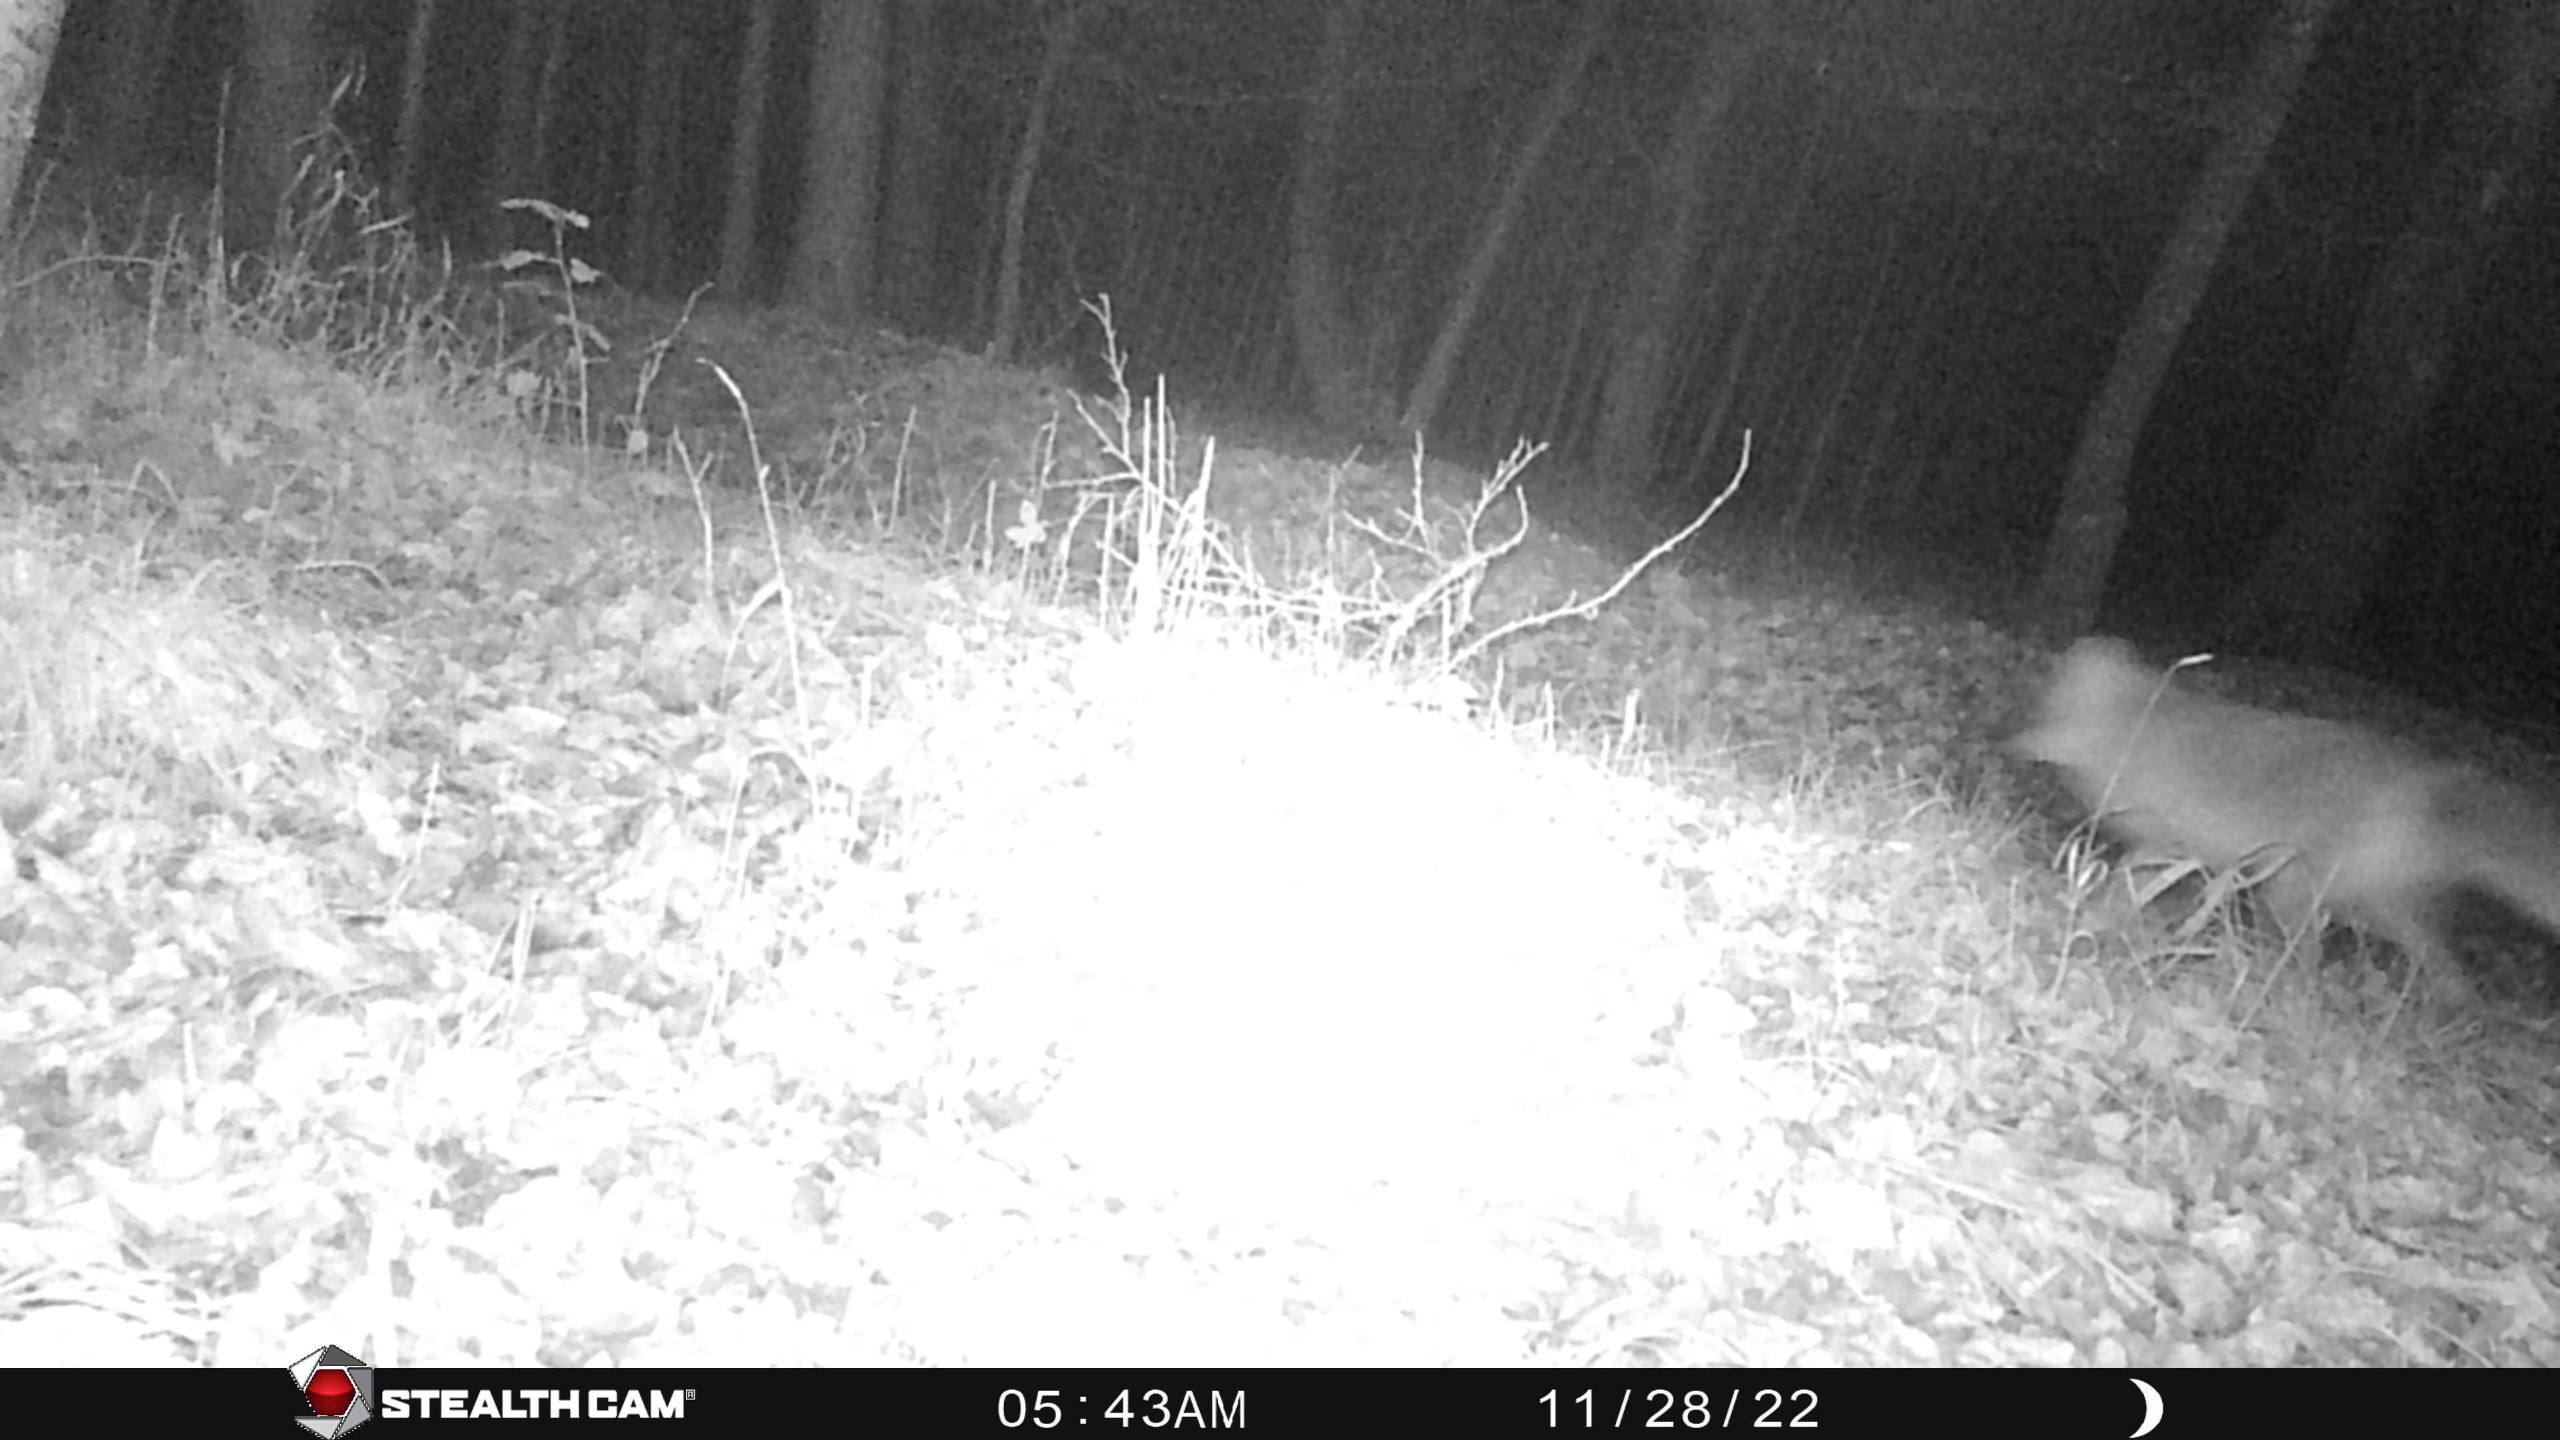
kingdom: Animalia
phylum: Chordata
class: Mammalia
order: Carnivora
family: Canidae
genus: Vulpes
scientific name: Vulpes vulpes
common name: Ræv
